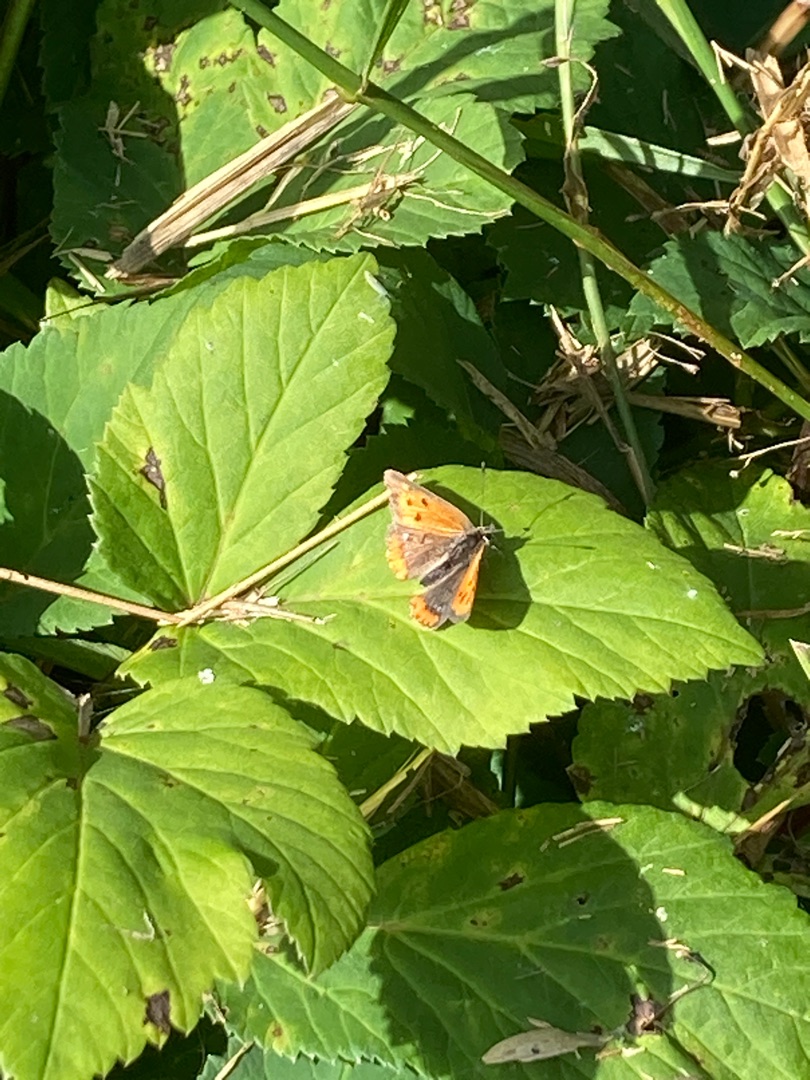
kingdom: Animalia
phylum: Arthropoda
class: Insecta
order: Lepidoptera
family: Lycaenidae
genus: Lycaena
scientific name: Lycaena phlaeas
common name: Lille ildfugl
